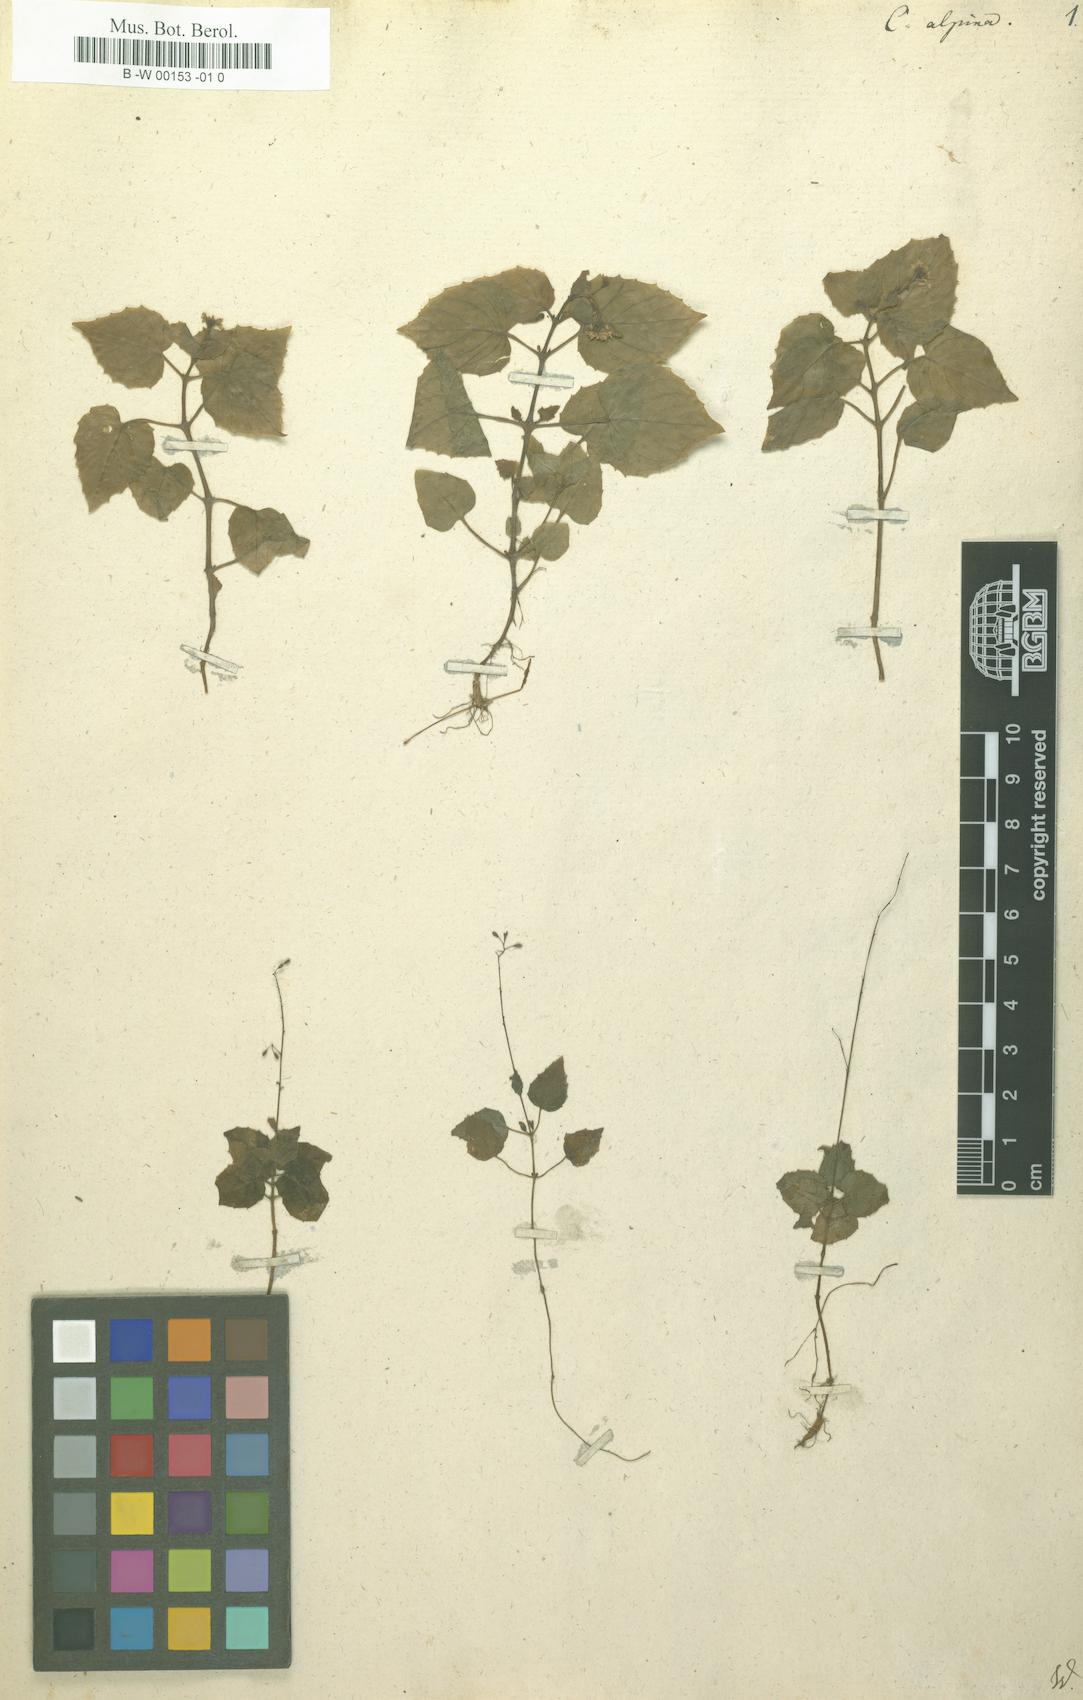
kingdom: Plantae
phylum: Tracheophyta
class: Magnoliopsida
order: Myrtales
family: Onagraceae
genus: Circaea
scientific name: Circaea alpina
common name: Alpine enchanter's-nightshade
